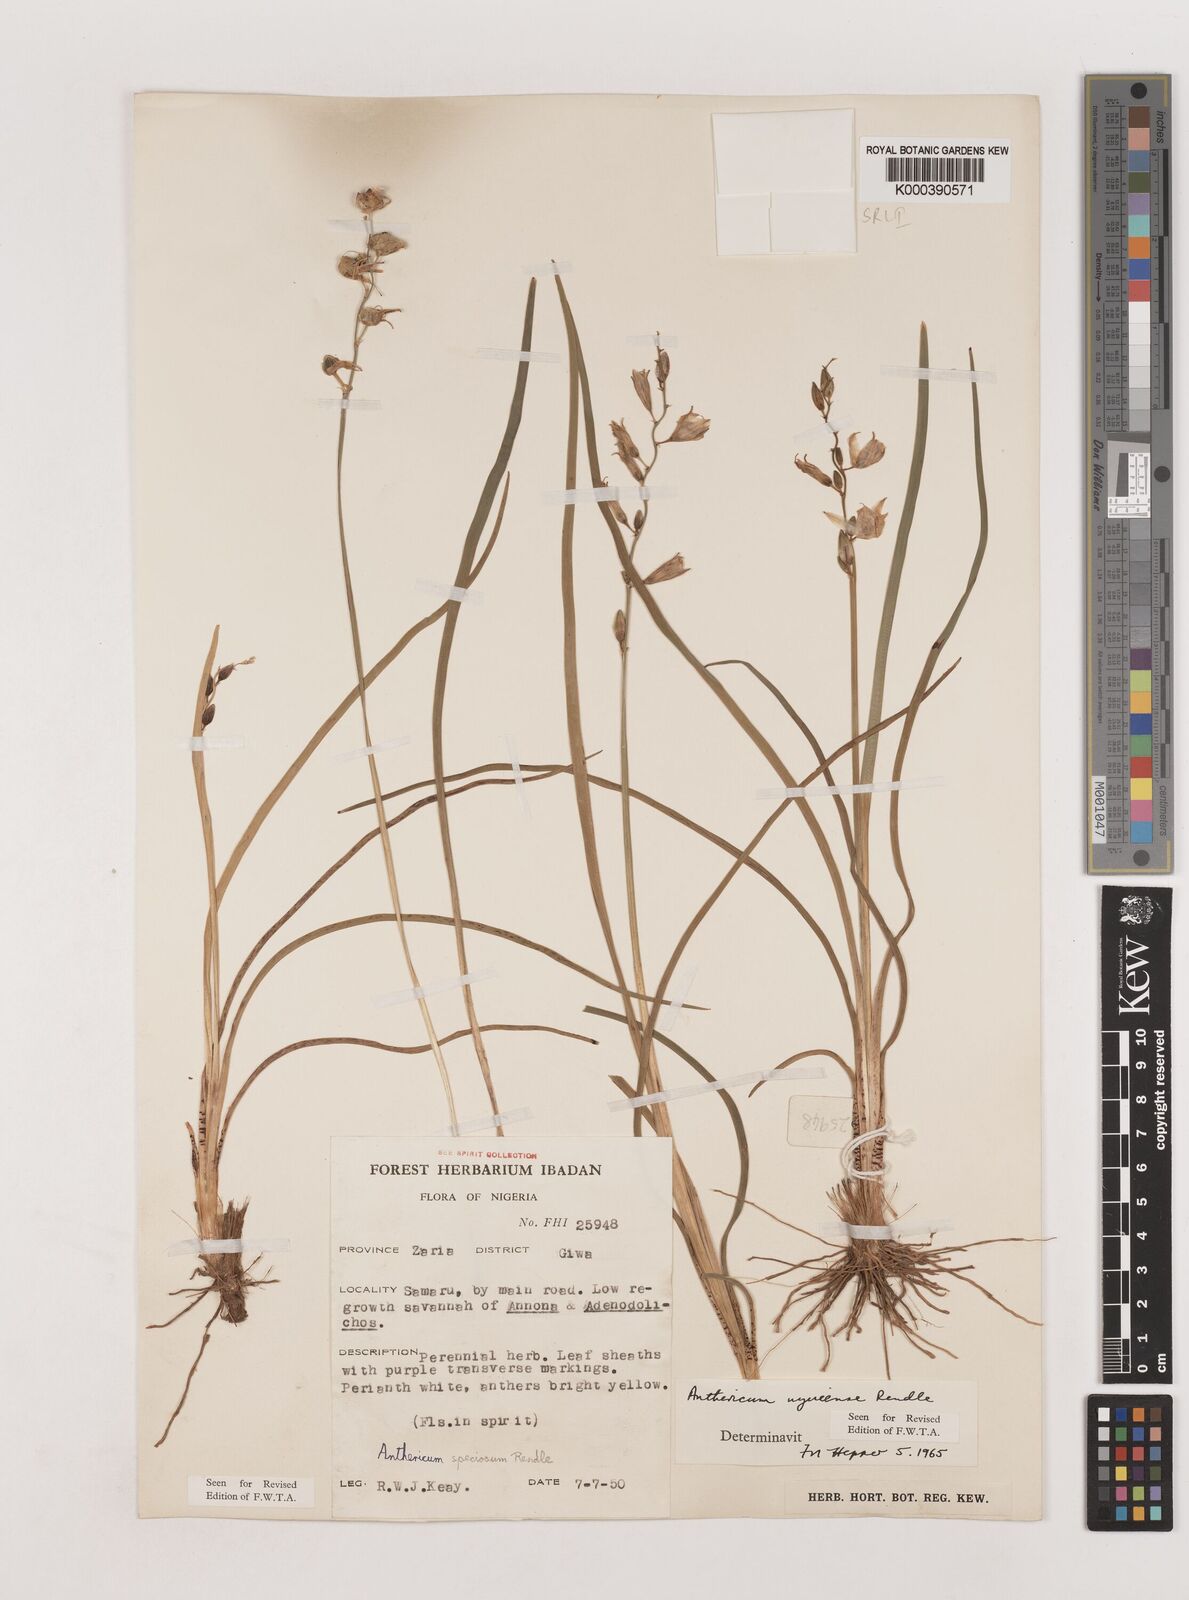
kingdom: Plantae
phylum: Tracheophyta
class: Liliopsida
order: Asparagales
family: Asparagaceae
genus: Chlorophytum
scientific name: Chlorophytum cameronii
